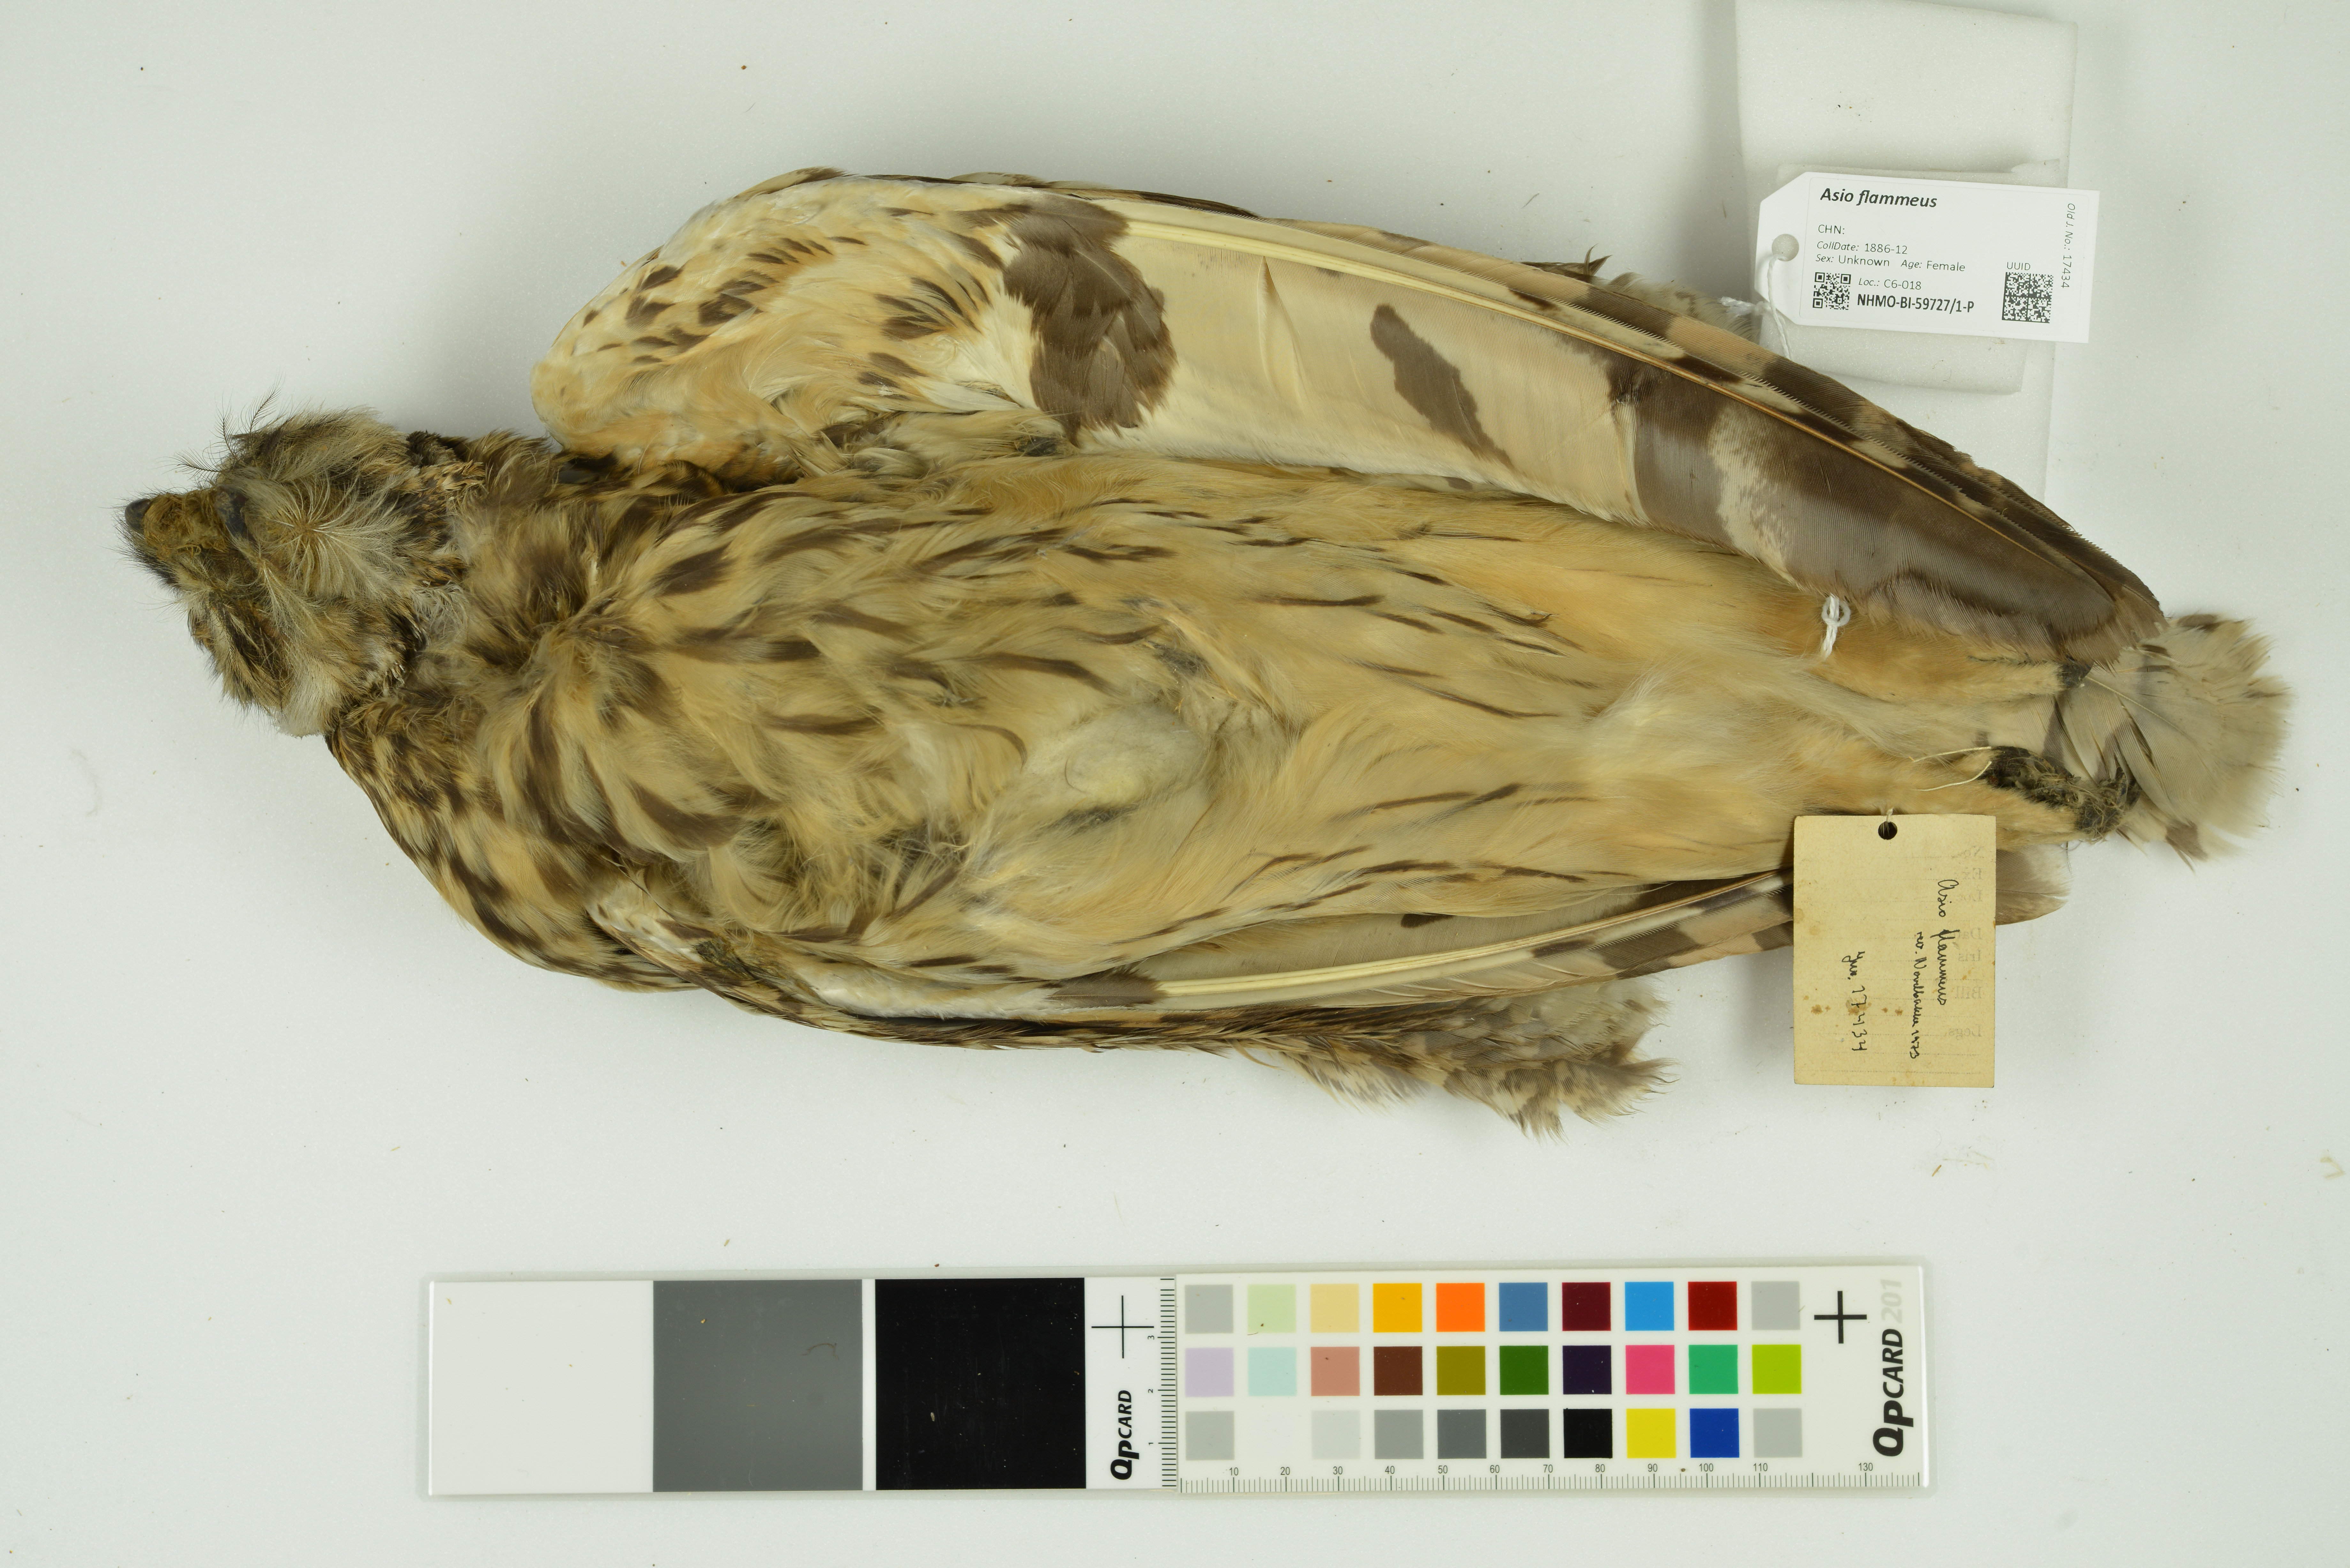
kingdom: Animalia
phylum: Chordata
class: Aves
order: Strigiformes
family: Strigidae
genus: Asio
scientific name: Asio flammeus
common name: Short-eared owl
